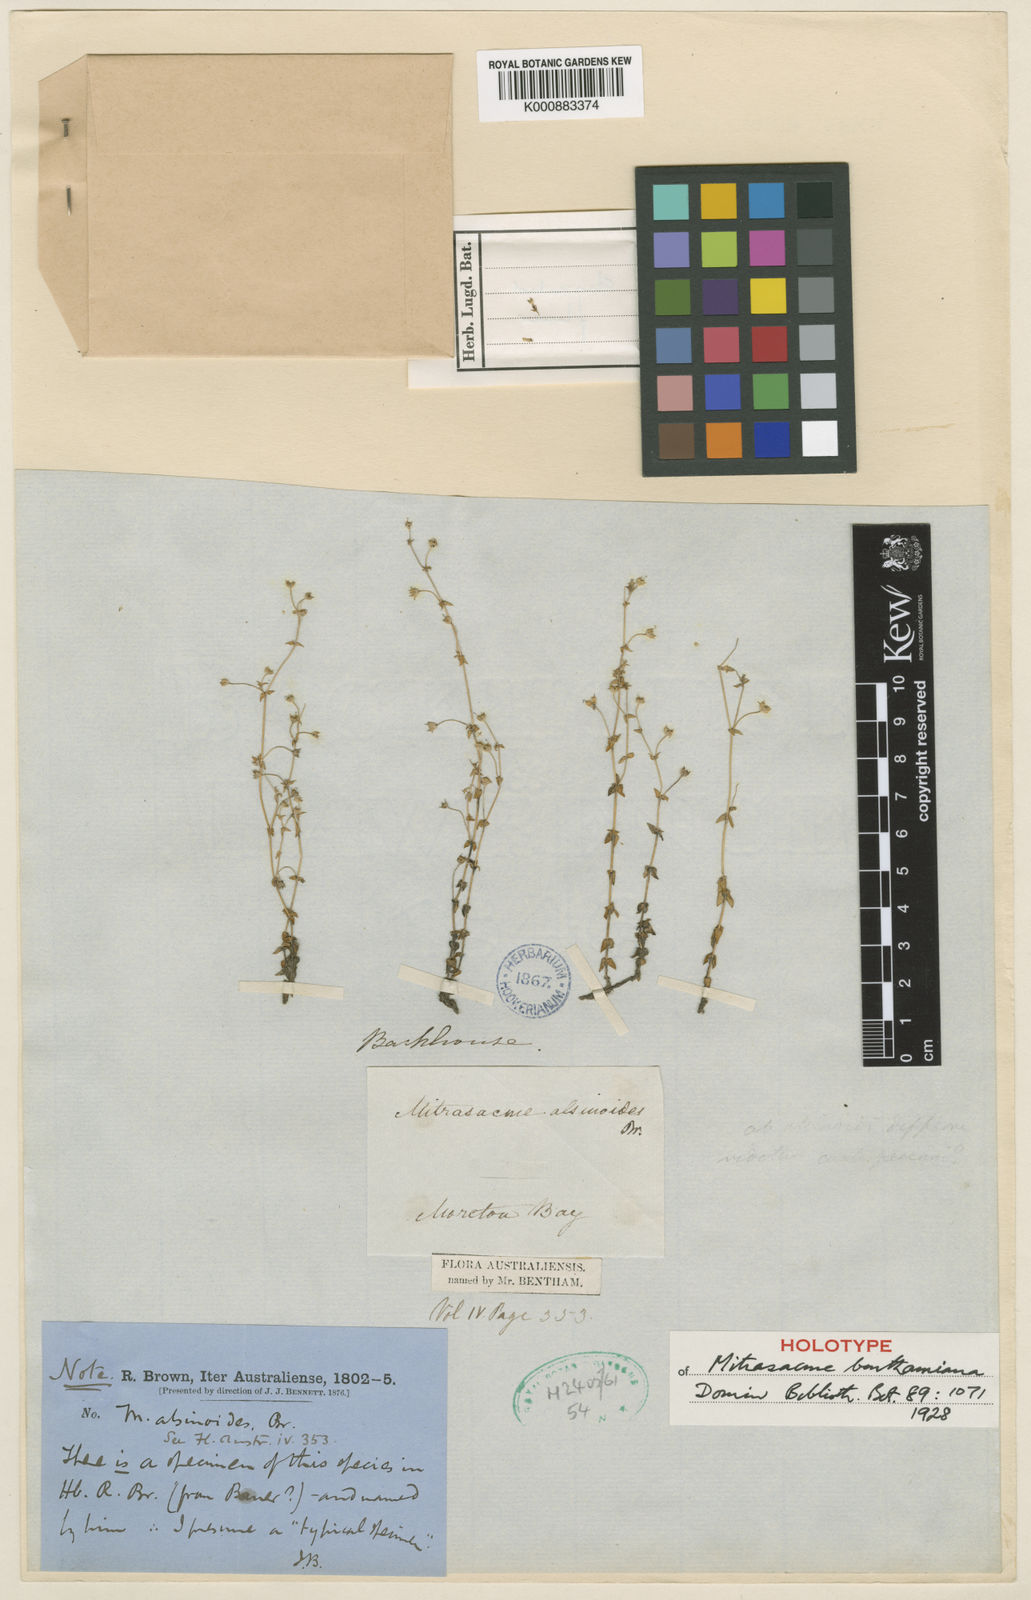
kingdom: Plantae
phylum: Tracheophyta
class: Magnoliopsida
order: Gentianales
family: Loganiaceae
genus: Mitrasacme
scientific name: Mitrasacme alsinoides
